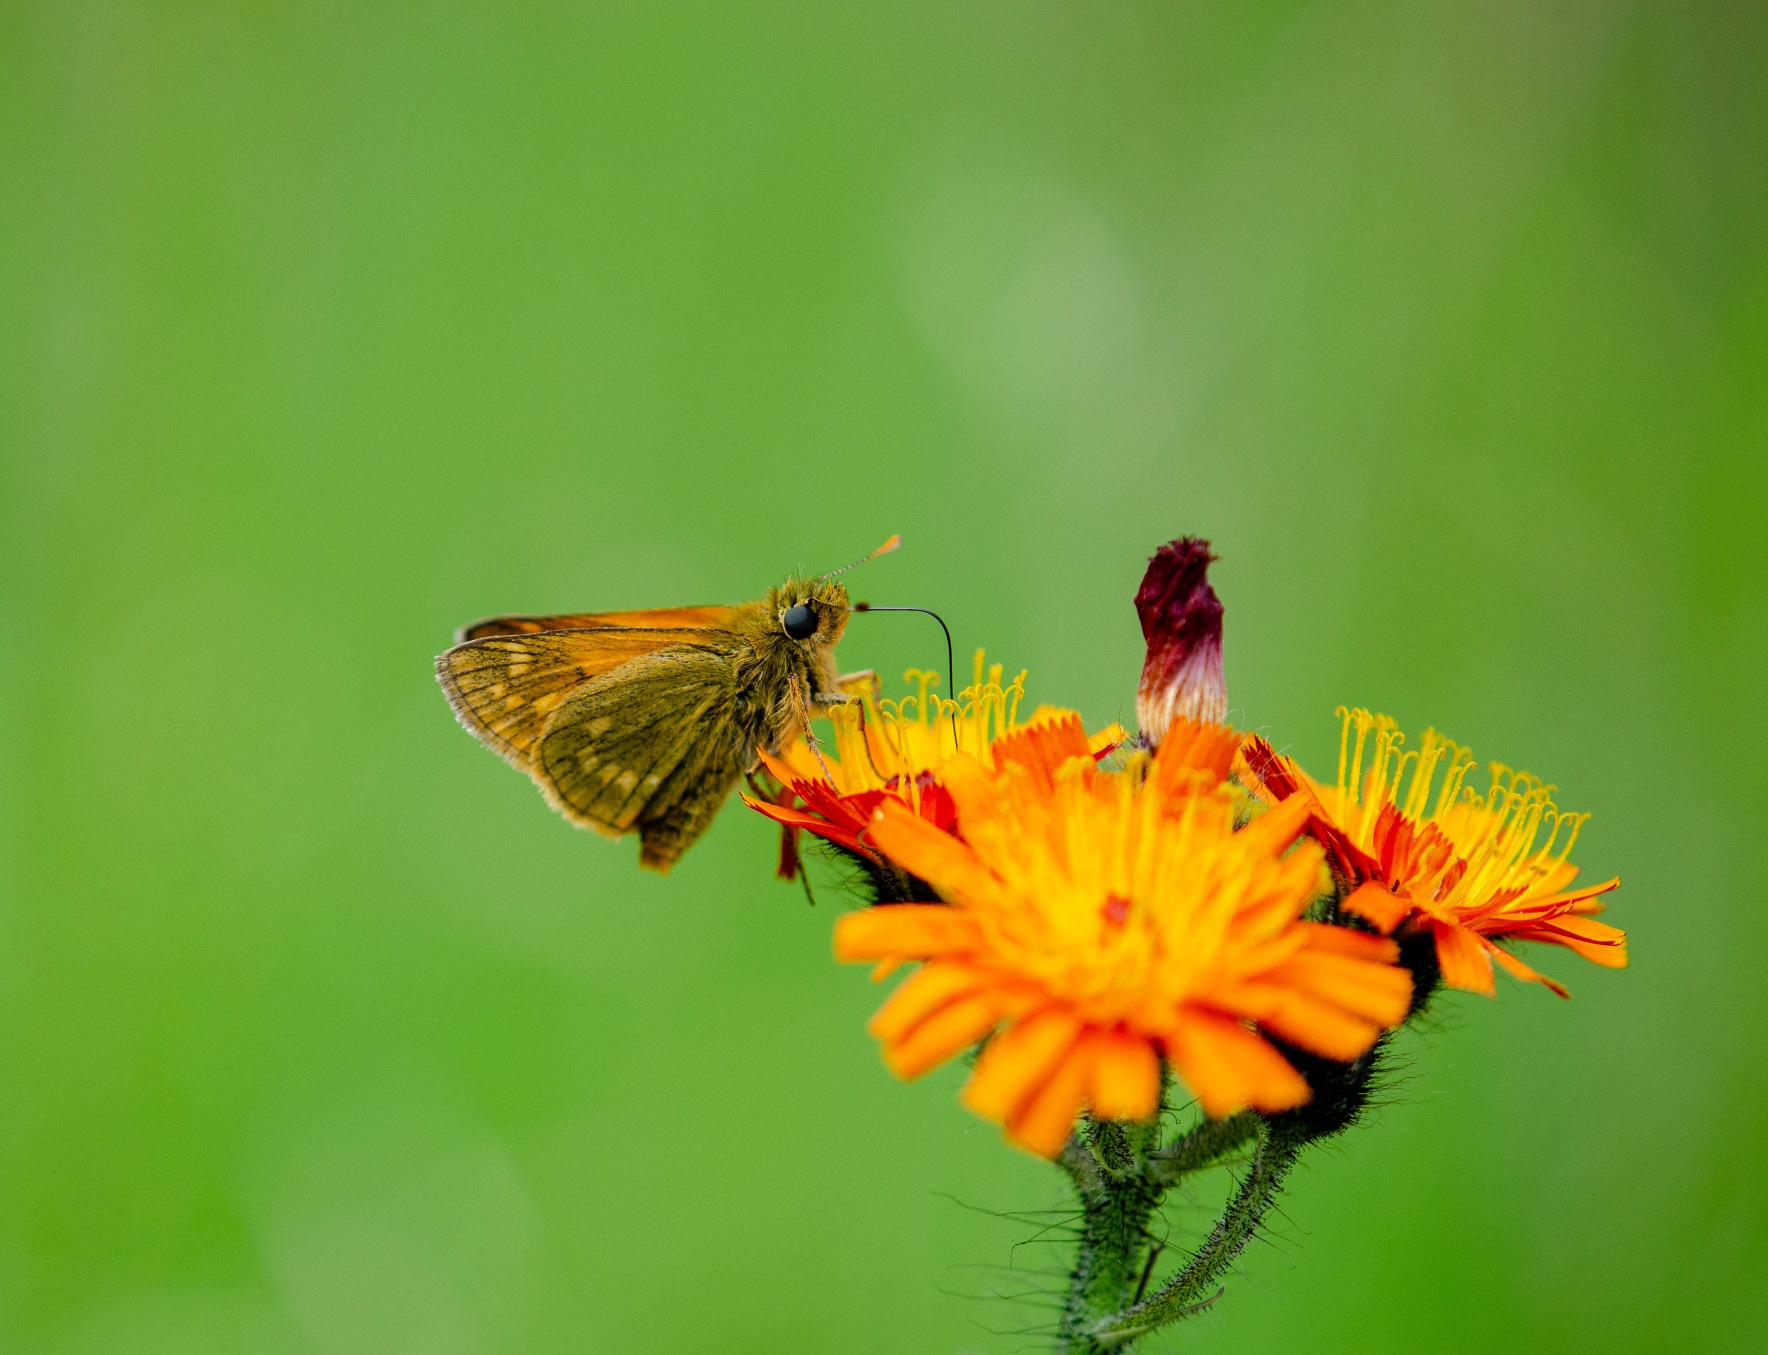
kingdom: Animalia
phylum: Arthropoda
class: Insecta
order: Lepidoptera
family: Hesperiidae
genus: Ochlodes
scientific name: Ochlodes venata
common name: Stor bredpande
